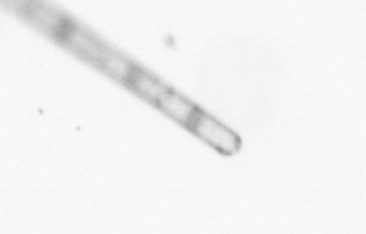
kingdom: Chromista
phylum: Ochrophyta
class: Bacillariophyceae
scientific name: Bacillariophyceae
